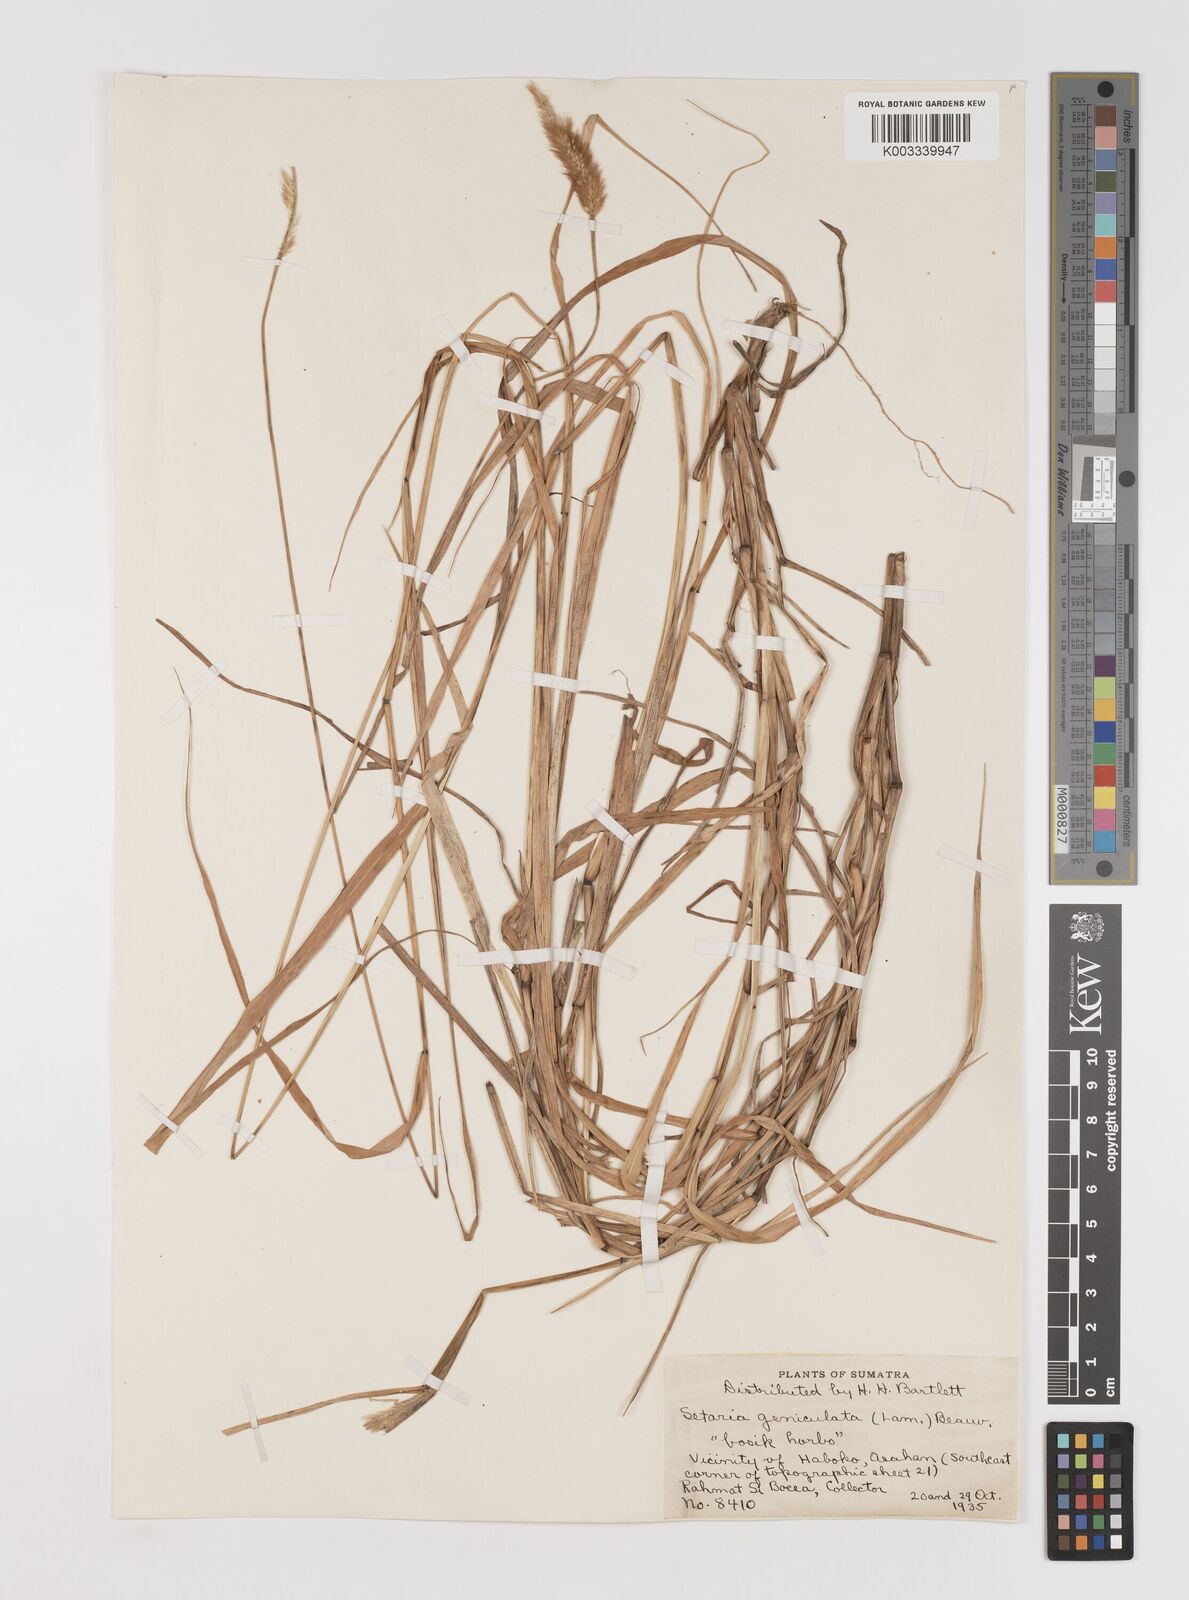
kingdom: Plantae
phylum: Tracheophyta
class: Liliopsida
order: Poales
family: Poaceae
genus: Setaria
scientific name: Setaria parviflora
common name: Knotroot bristle-grass
